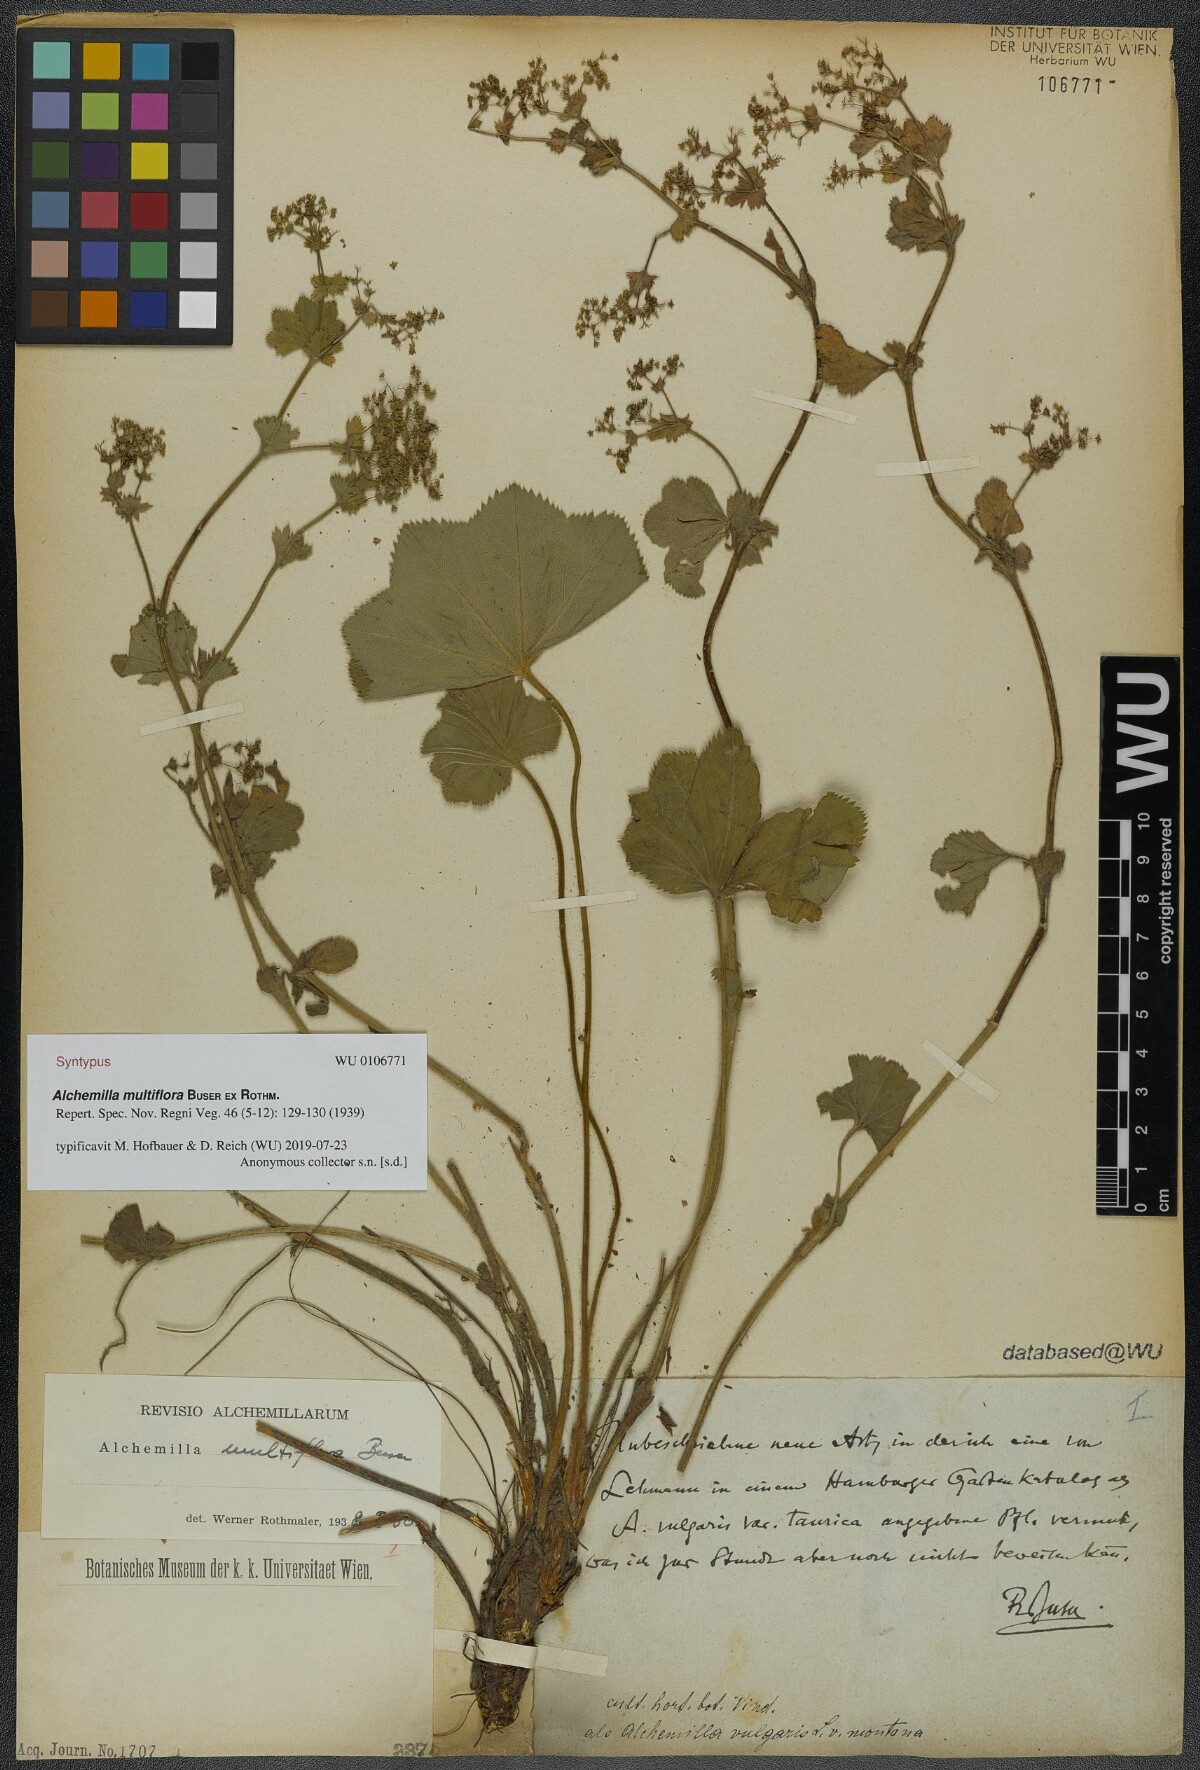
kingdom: Plantae
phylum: Tracheophyta
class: Magnoliopsida
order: Rosales
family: Rosaceae
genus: Alchemilla
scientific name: Alchemilla tytthantha
